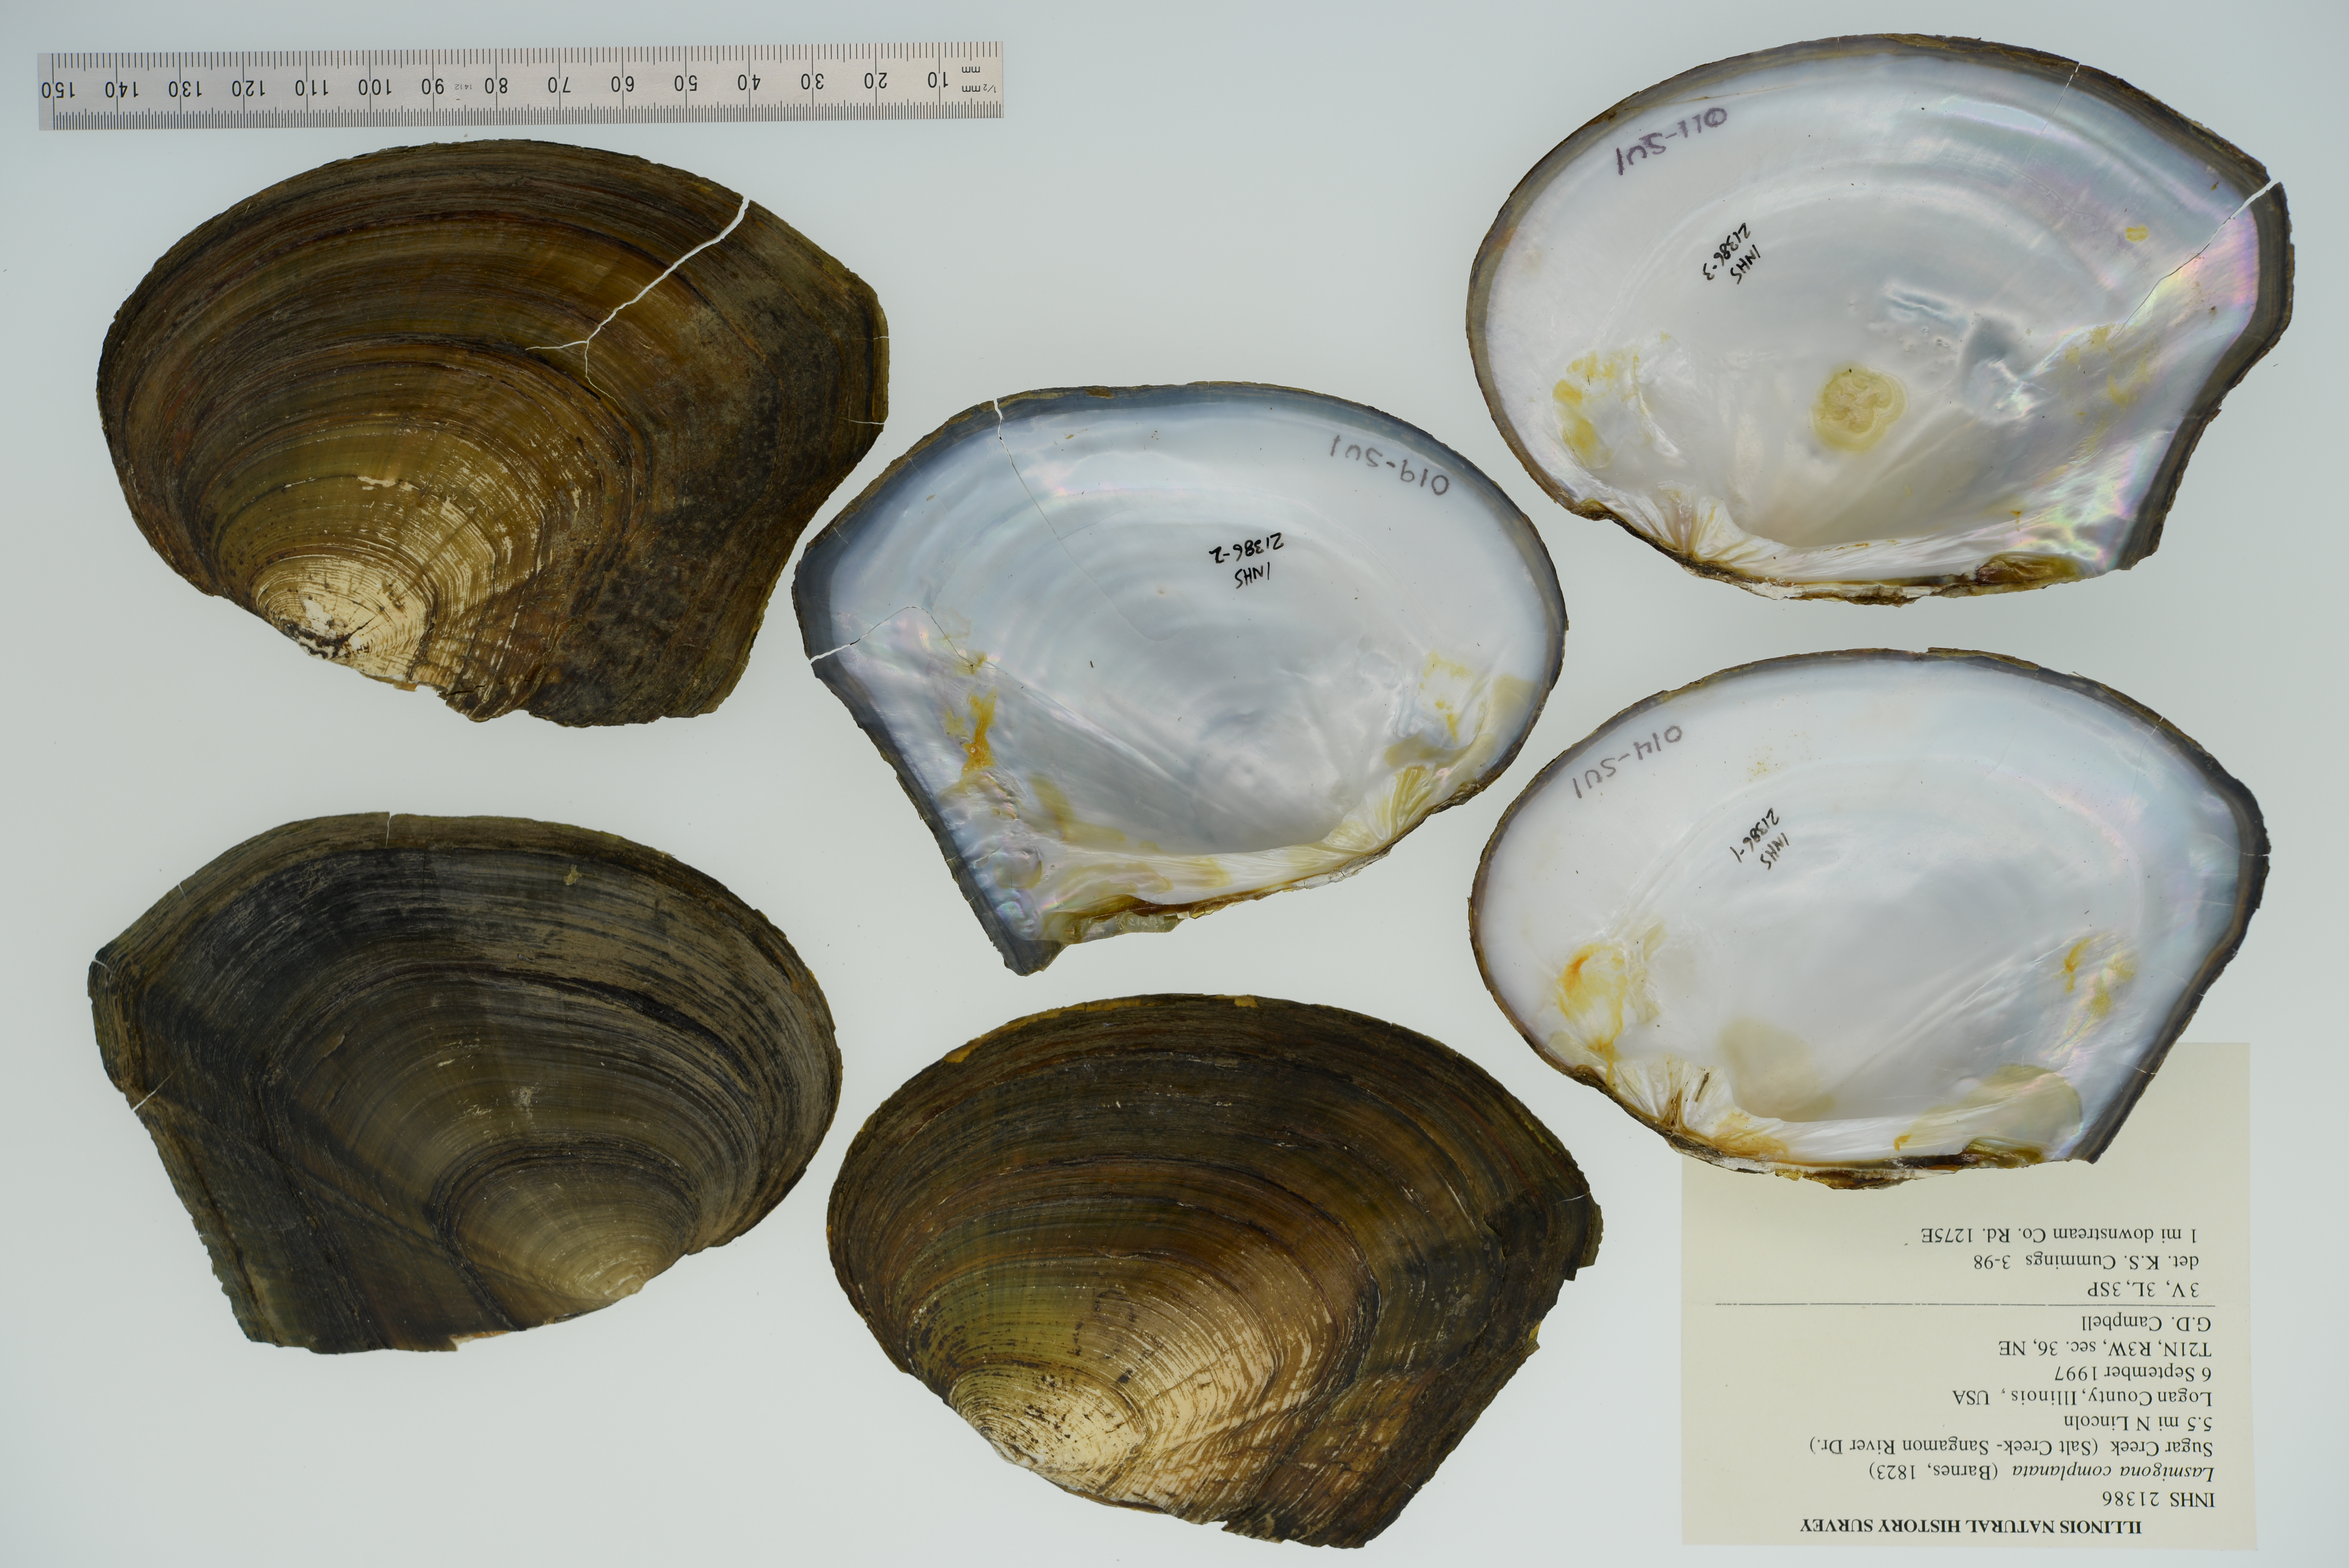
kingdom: Animalia
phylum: Mollusca
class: Bivalvia
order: Unionida
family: Unionidae
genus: Lasmigona
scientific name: Lasmigona complanata
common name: White heelsplitter
